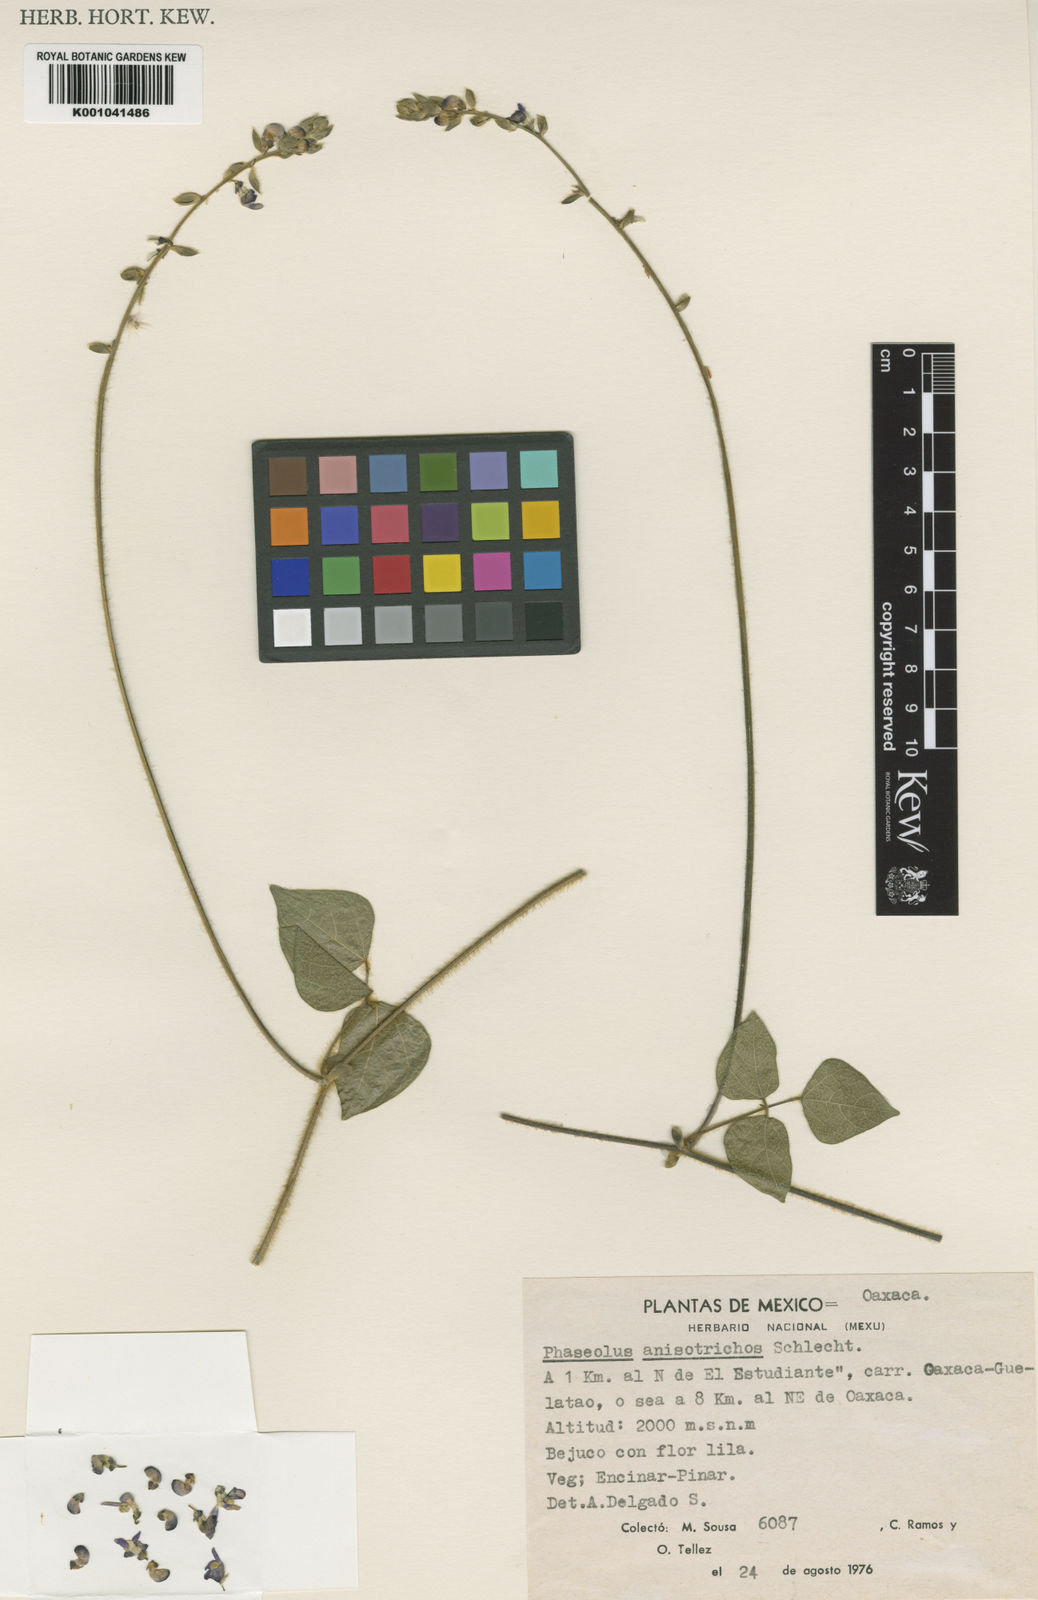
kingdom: Plantae
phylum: Tracheophyta
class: Magnoliopsida
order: Fabales
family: Fabaceae
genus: Phaseolus
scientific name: Phaseolus
